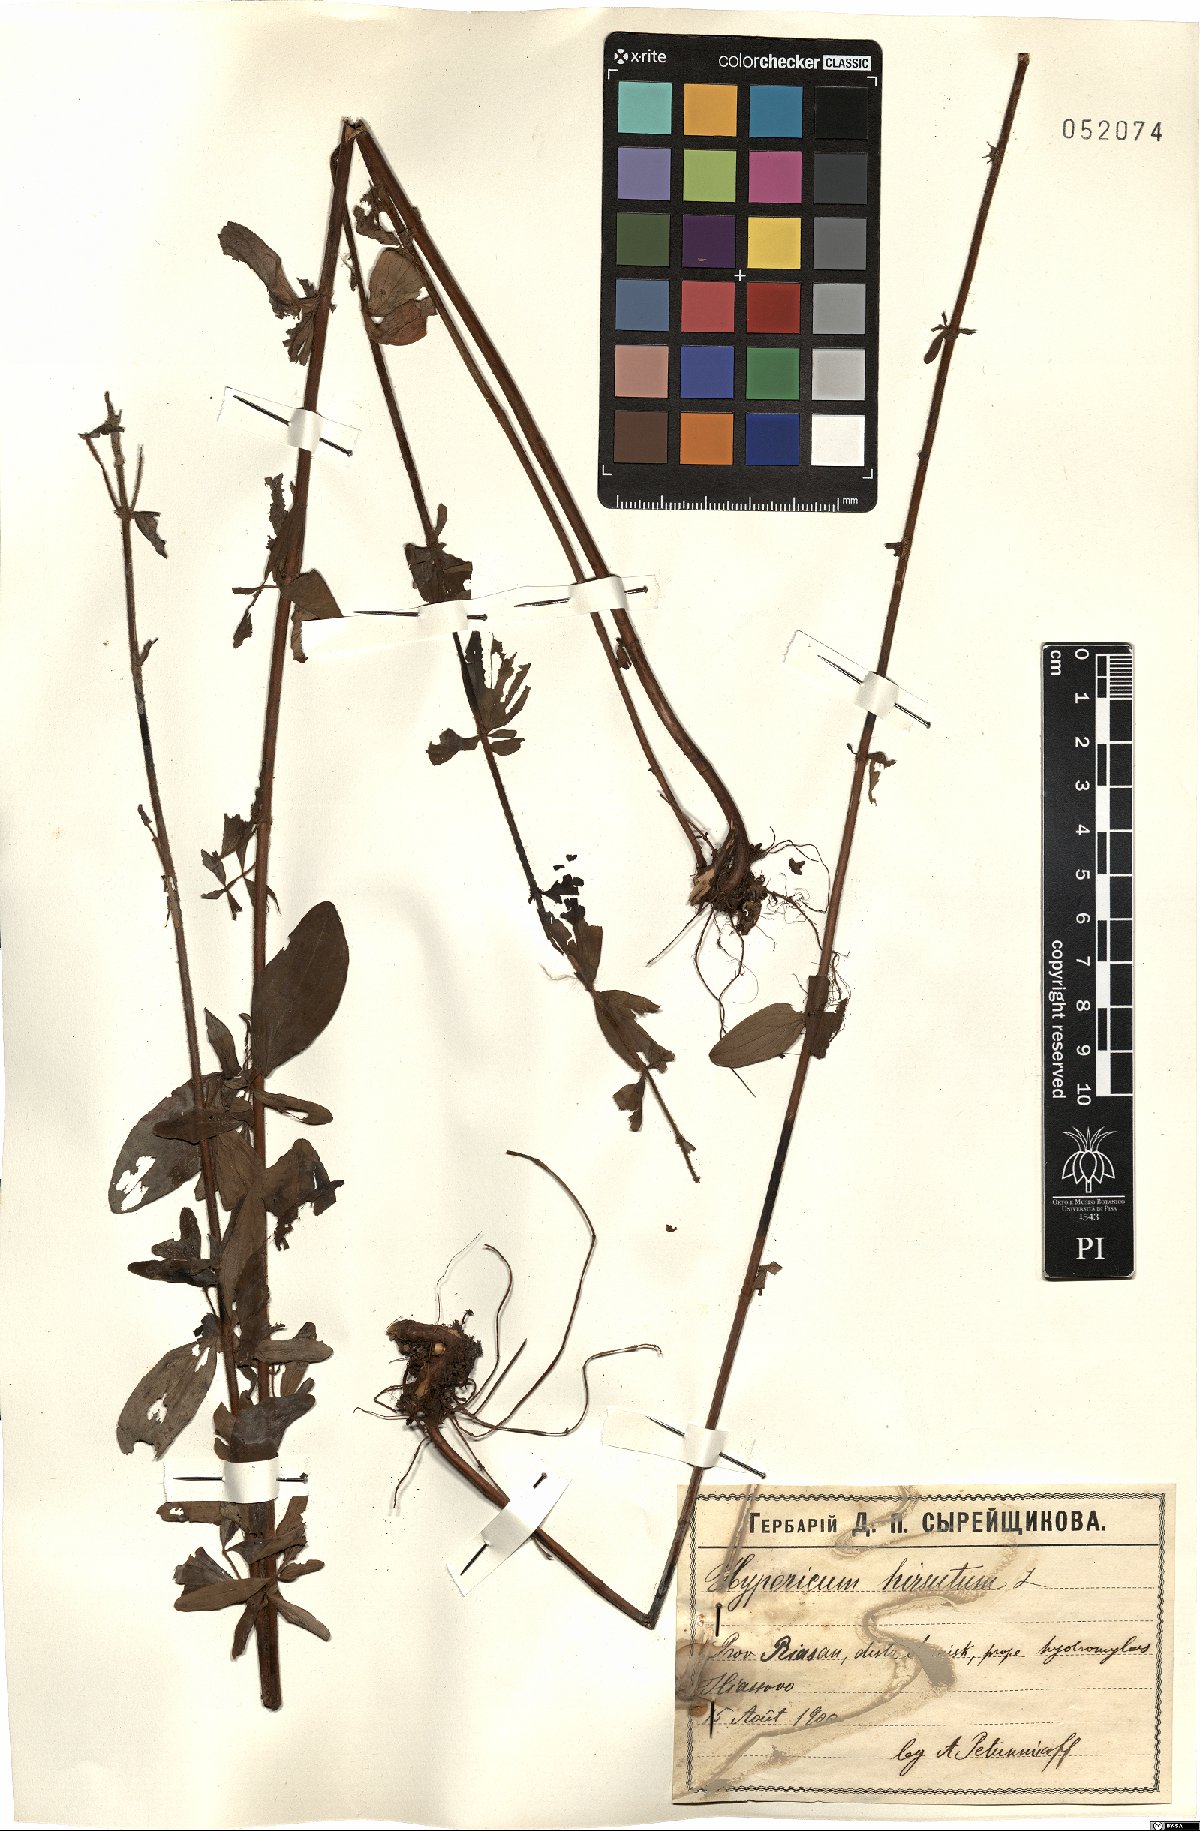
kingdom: Plantae
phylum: Tracheophyta
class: Magnoliopsida
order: Malpighiales
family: Hypericaceae
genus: Hypericum
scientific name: Hypericum hirsutum
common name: Hairy st. john's-wort
